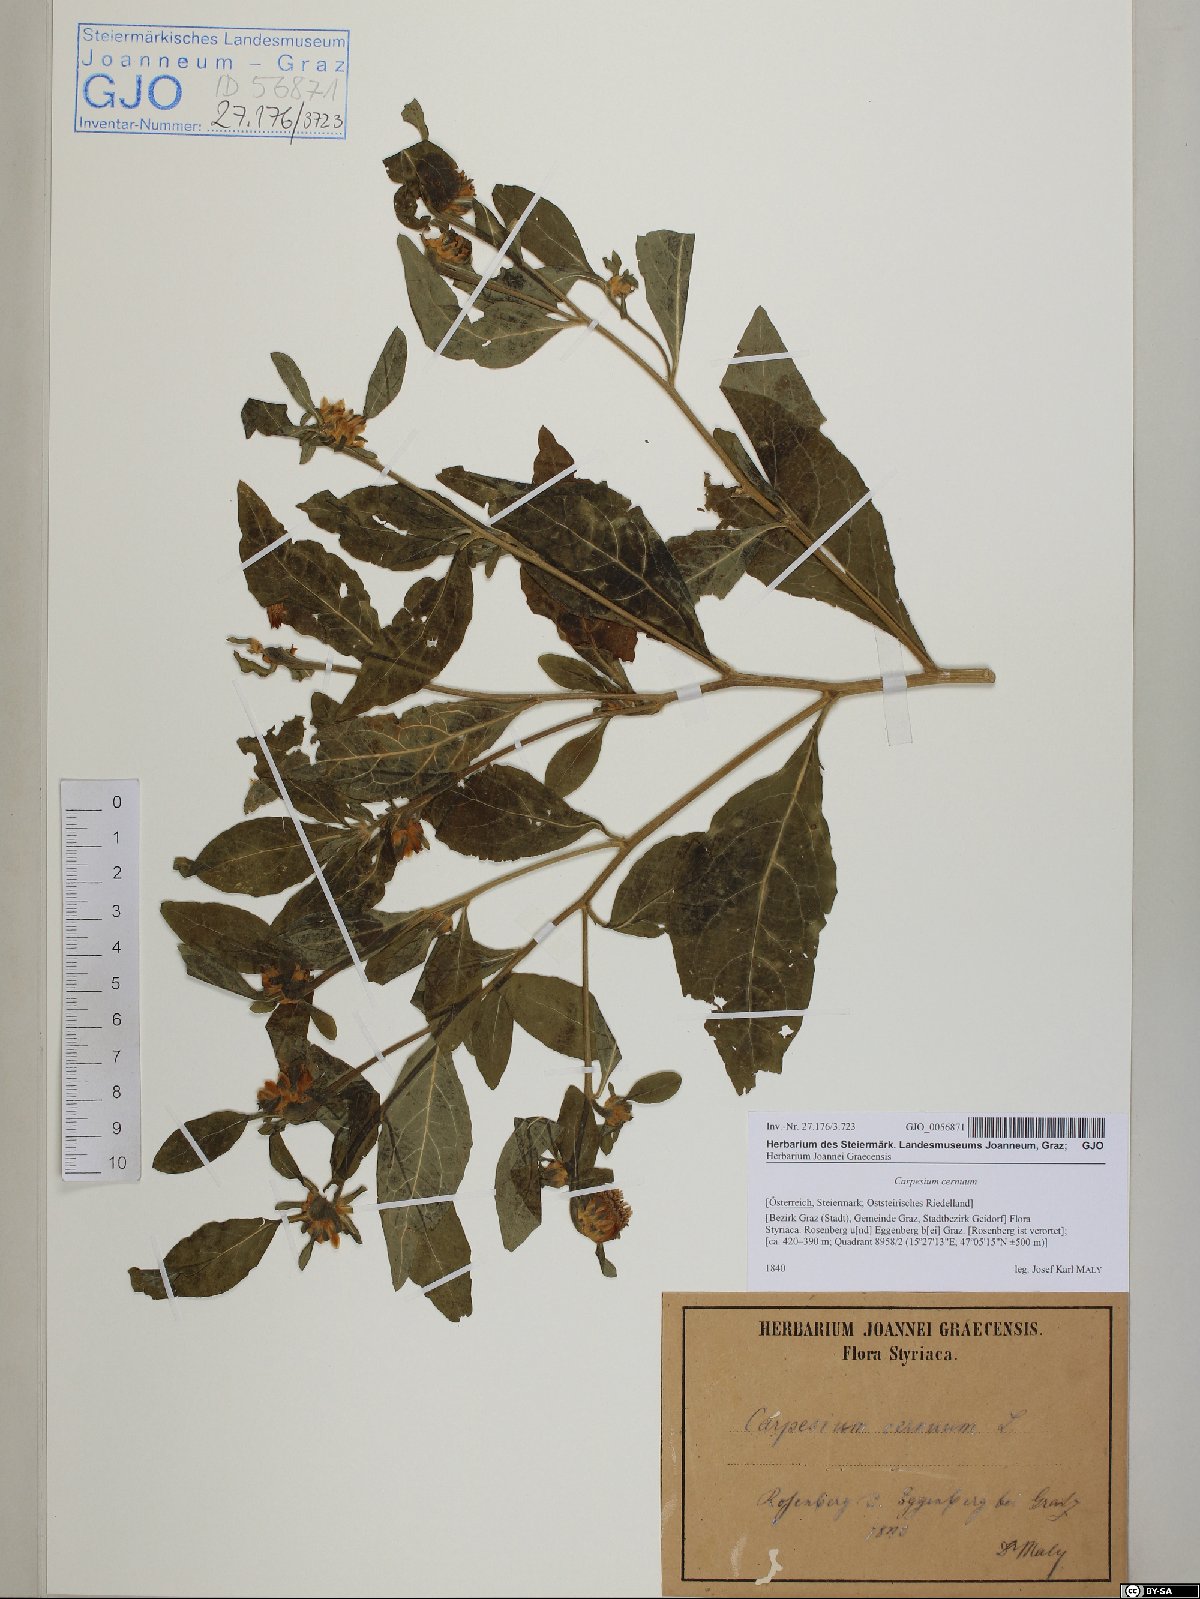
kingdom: Plantae
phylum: Tracheophyta
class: Magnoliopsida
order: Asterales
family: Asteraceae
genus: Carpesium
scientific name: Carpesium cernuum
